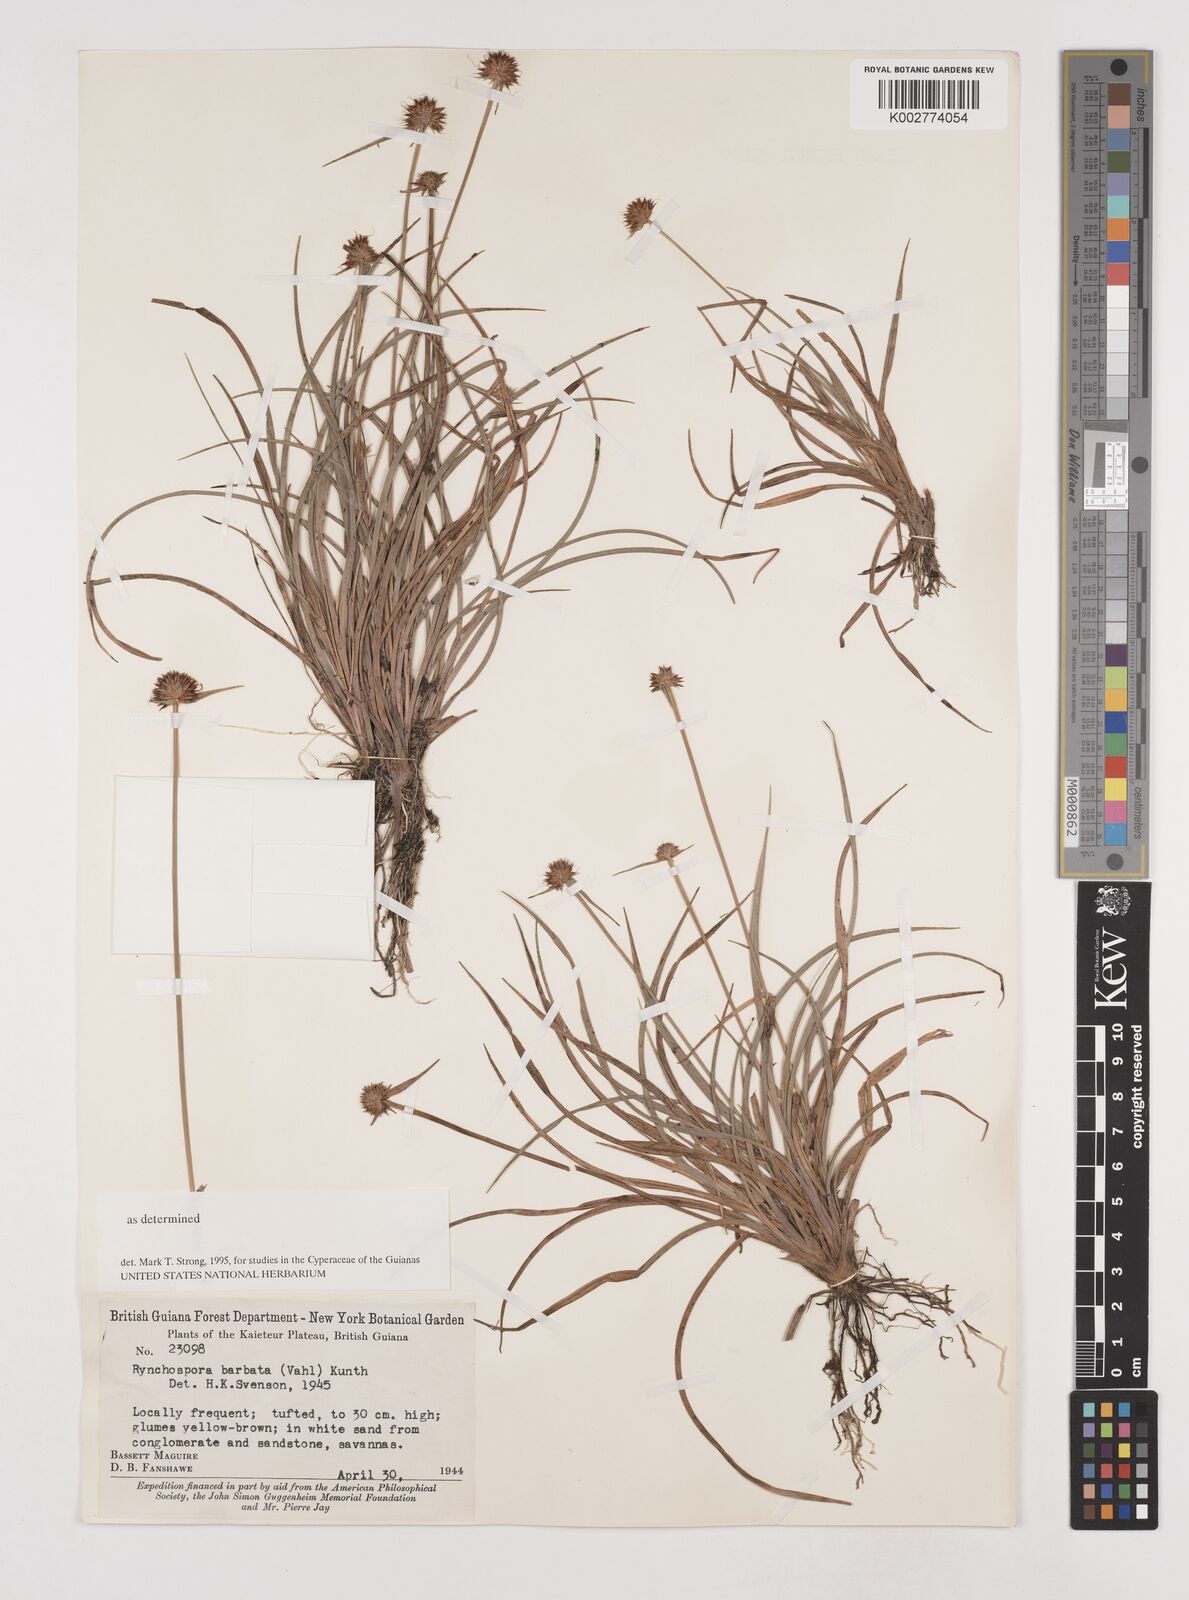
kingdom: Plantae
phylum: Tracheophyta
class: Liliopsida
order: Poales
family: Cyperaceae
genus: Rhynchospora
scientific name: Rhynchospora barbata
